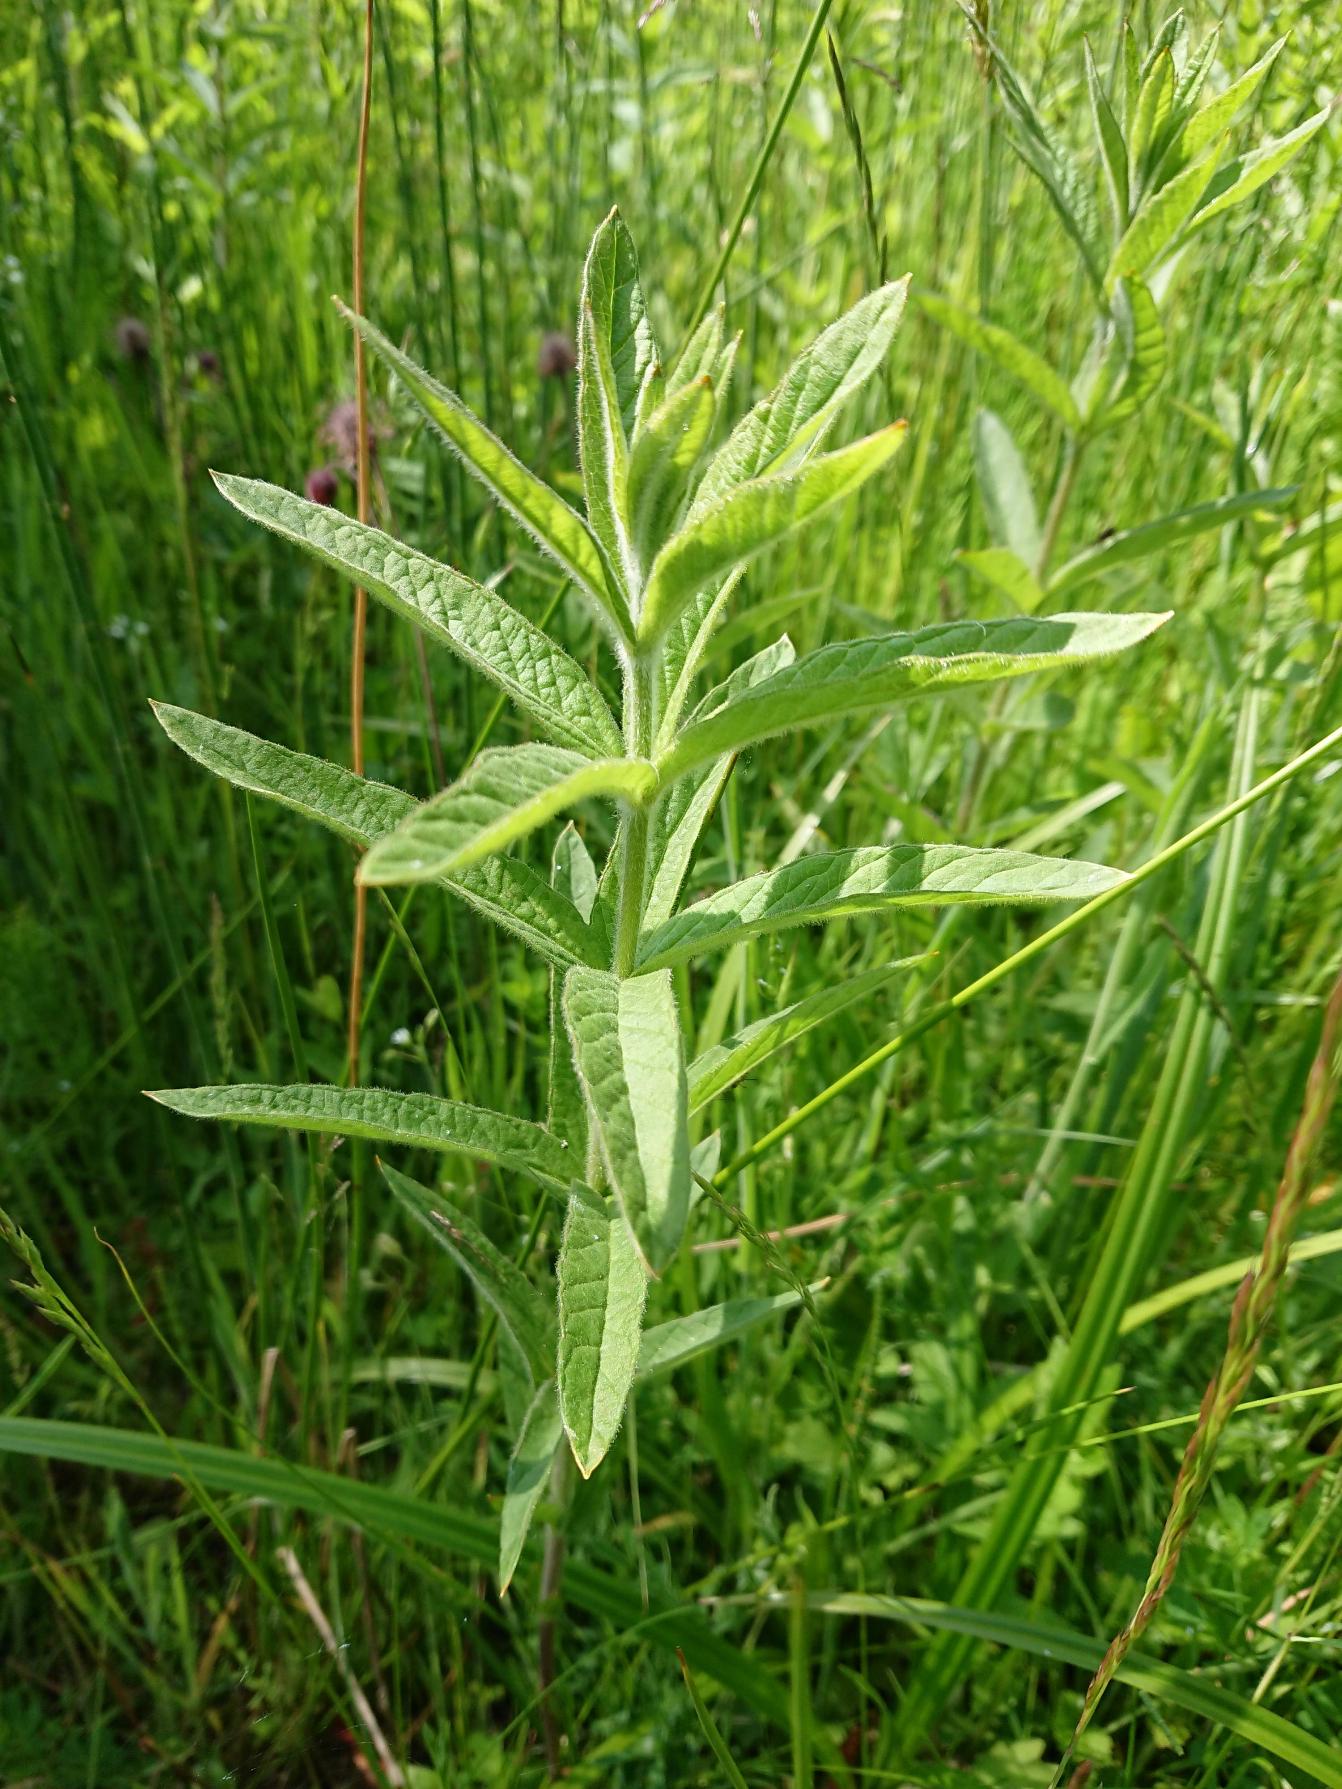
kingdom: Plantae
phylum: Tracheophyta
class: Magnoliopsida
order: Ericales
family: Primulaceae
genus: Lysimachia
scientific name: Lysimachia vulgaris
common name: Almindelig fredløs
